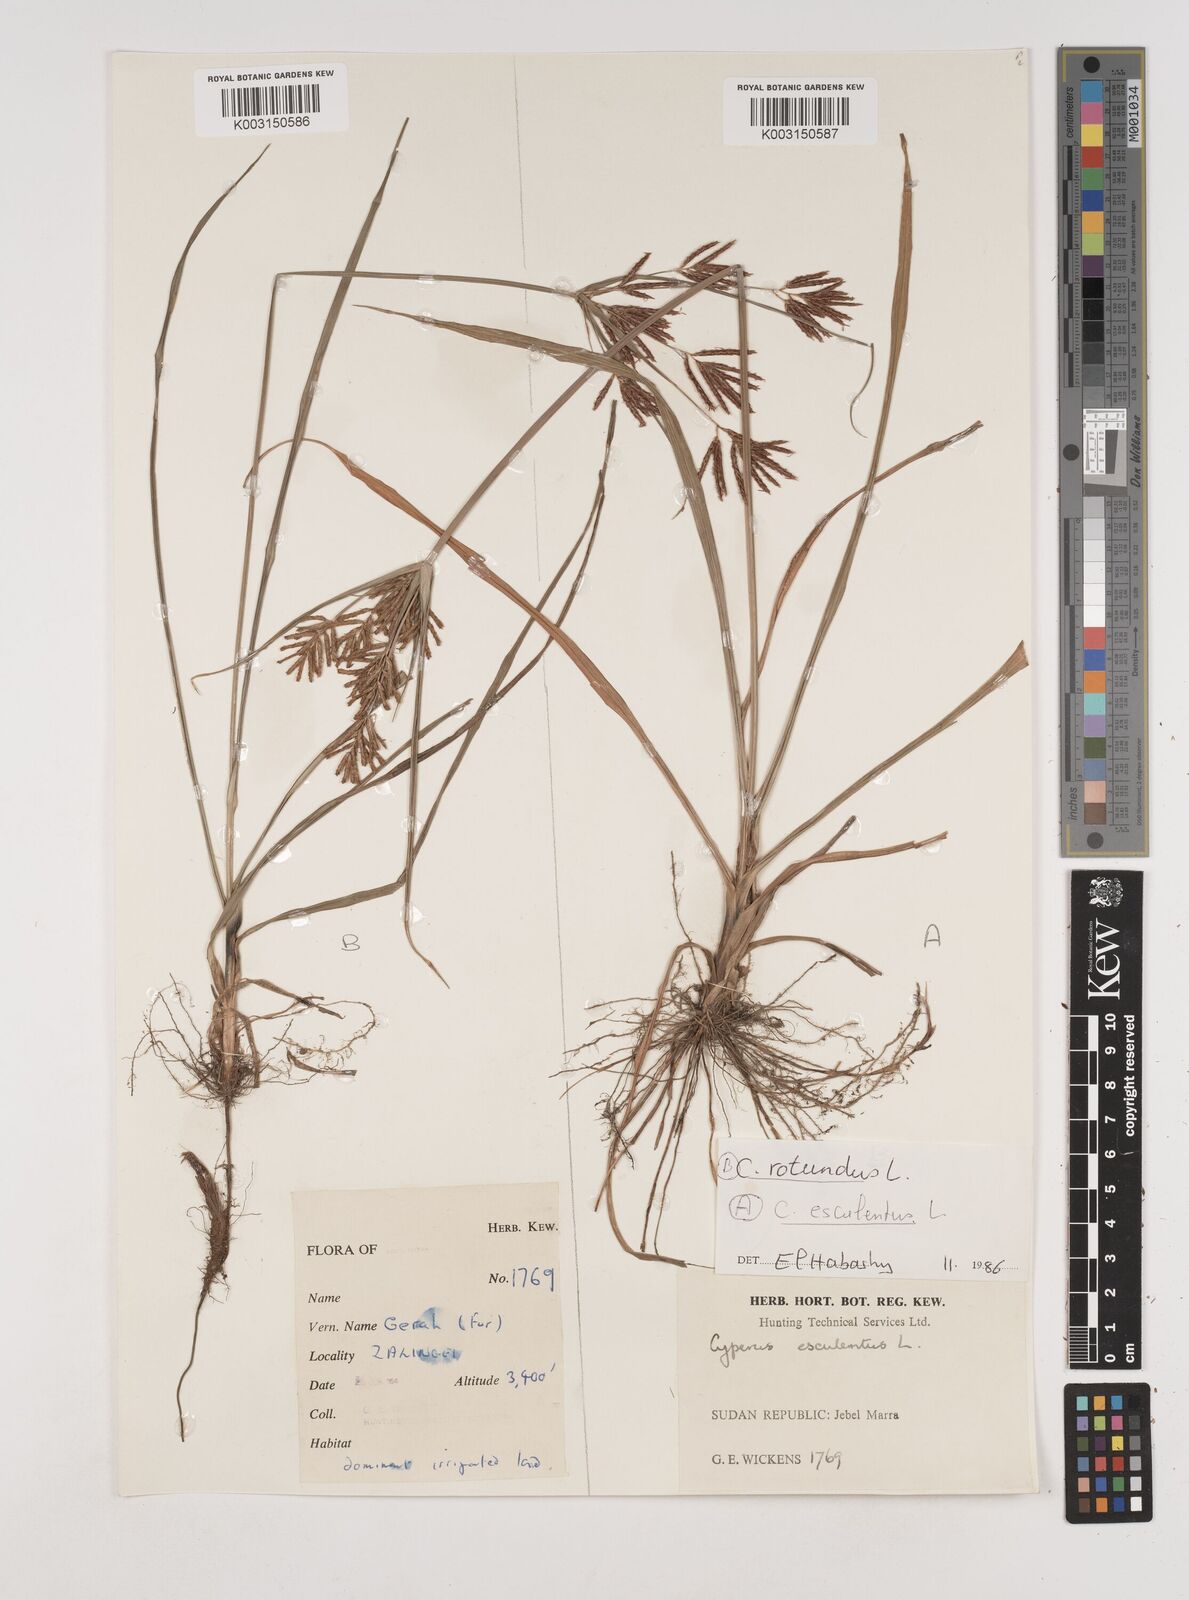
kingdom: Plantae
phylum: Tracheophyta
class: Liliopsida
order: Poales
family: Cyperaceae
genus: Cyperus
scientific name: Cyperus esculentus
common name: Yellow nutsedge
